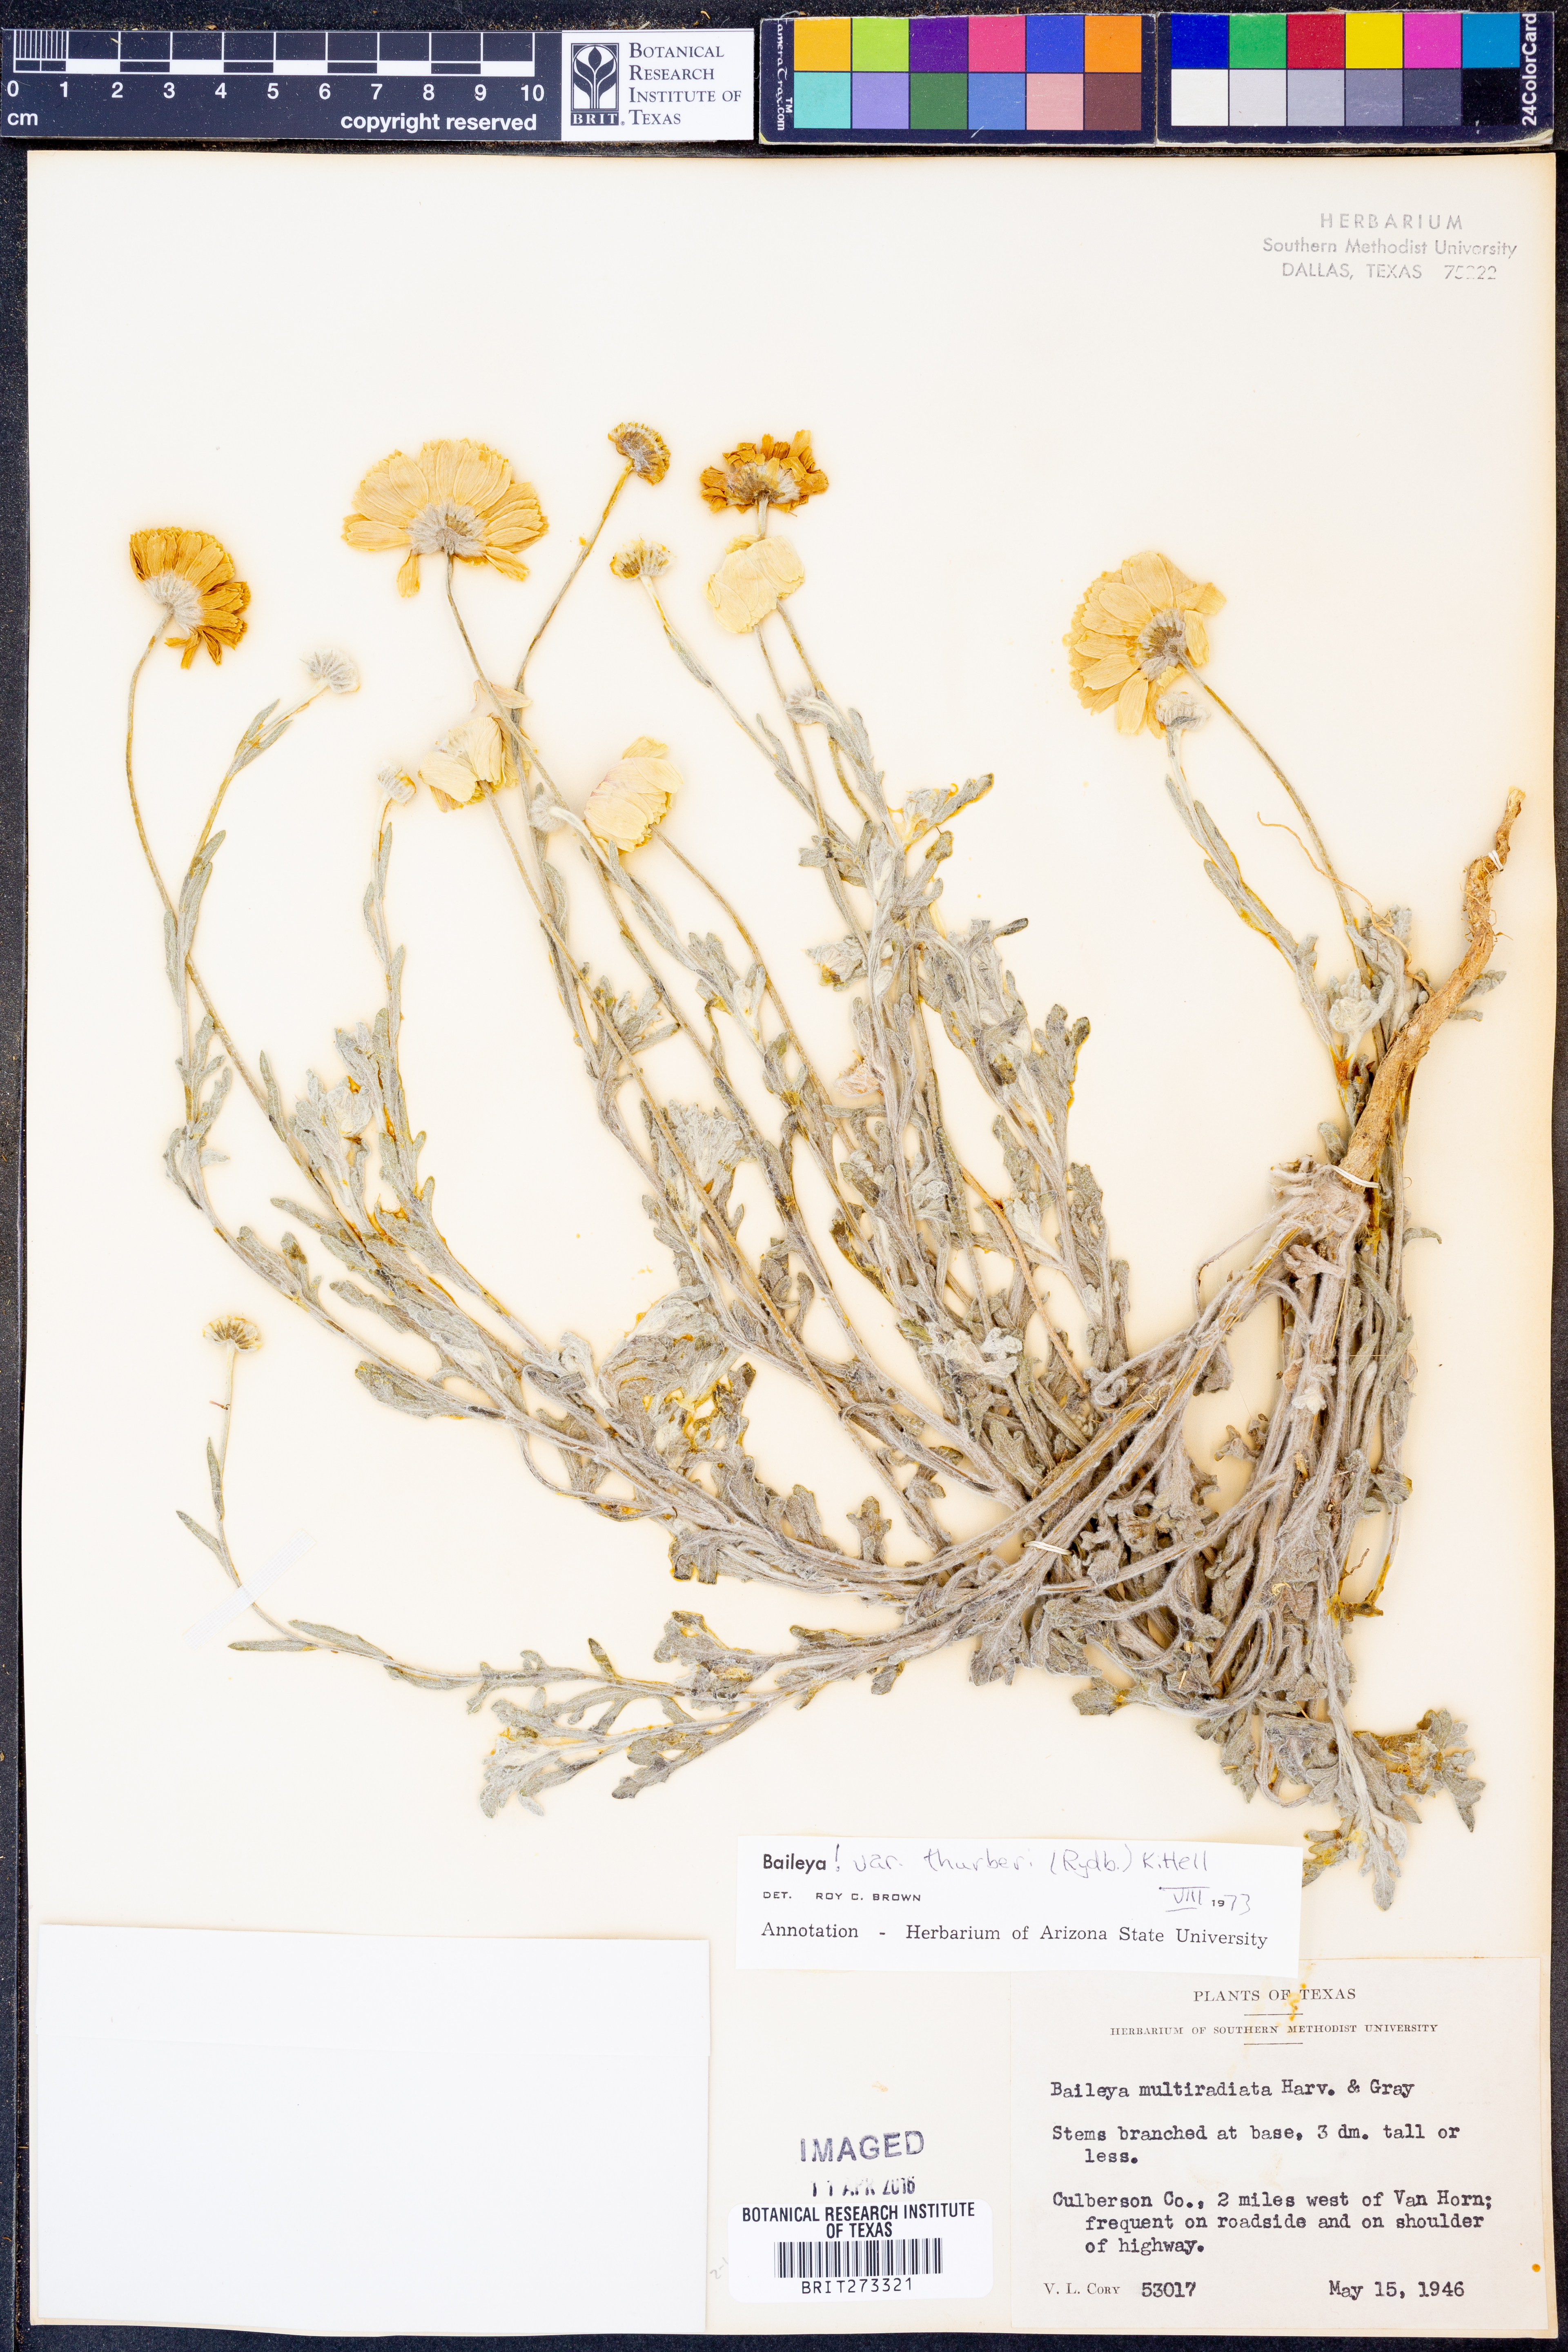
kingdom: Plantae
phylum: Tracheophyta
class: Magnoliopsida
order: Asterales
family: Asteraceae
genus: Baileya
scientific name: Baileya multiradiata
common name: Desert-marigold
